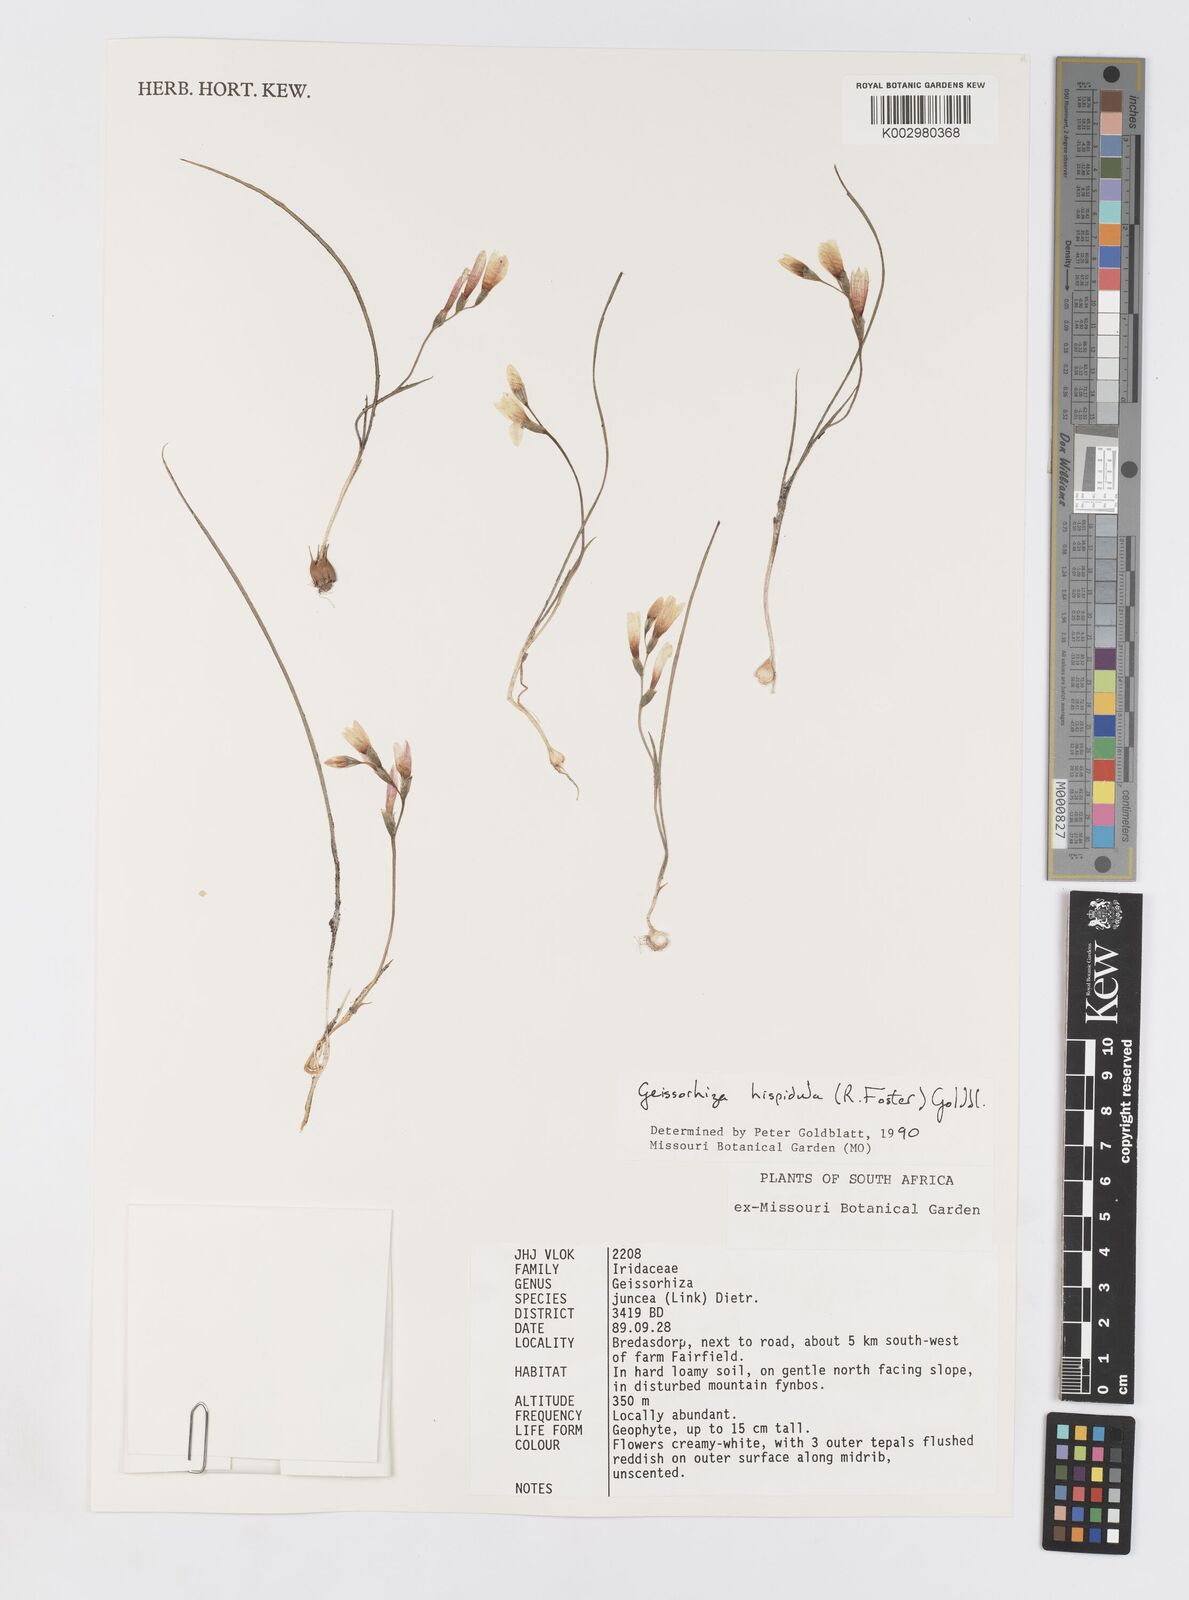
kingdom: Plantae
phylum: Tracheophyta
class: Liliopsida
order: Asparagales
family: Iridaceae
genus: Geissorhiza
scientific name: Geissorhiza hispidula
